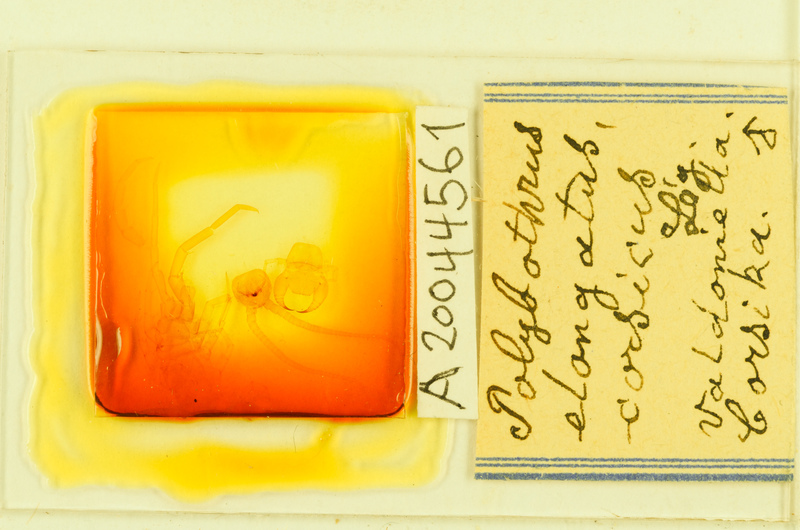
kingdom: Animalia
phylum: Arthropoda
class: Chilopoda
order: Lithobiomorpha
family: Lithobiidae
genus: Polybothrus
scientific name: Polybothrus
